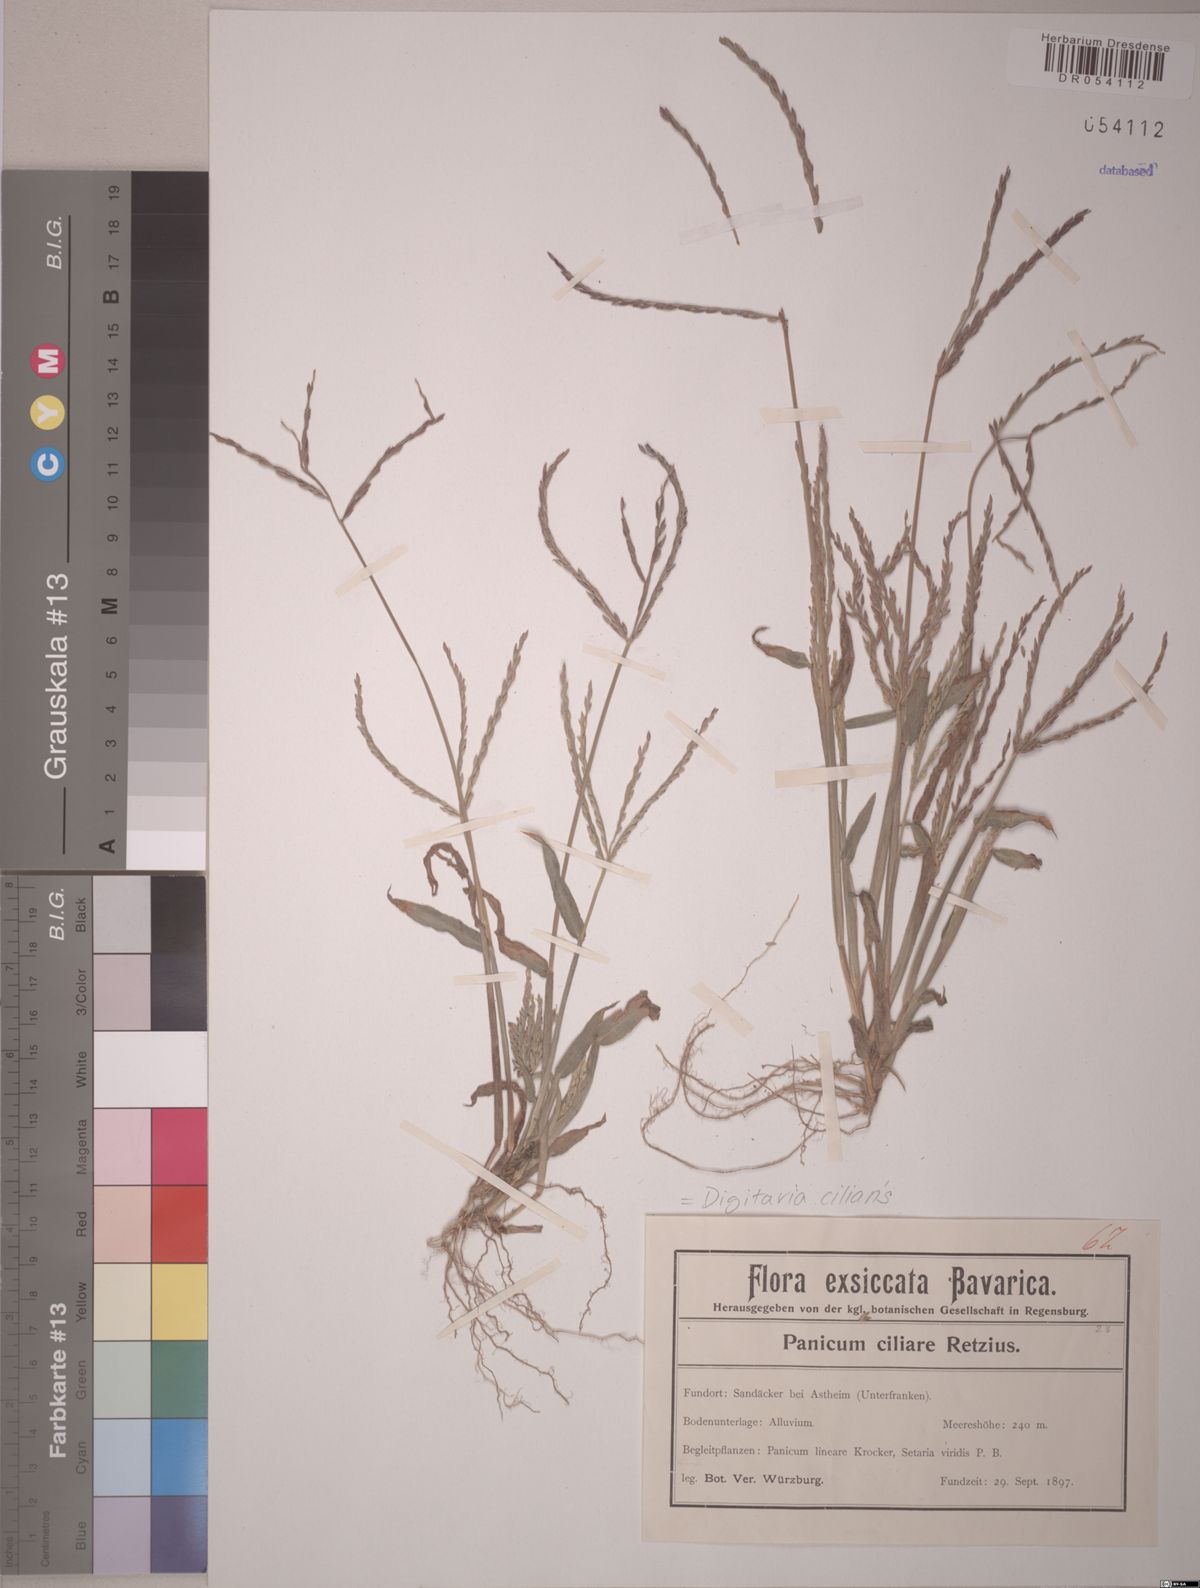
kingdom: Plantae
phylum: Tracheophyta
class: Liliopsida
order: Poales
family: Poaceae
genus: Digitaria
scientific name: Digitaria ciliaris
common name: Tropical finger-grass
